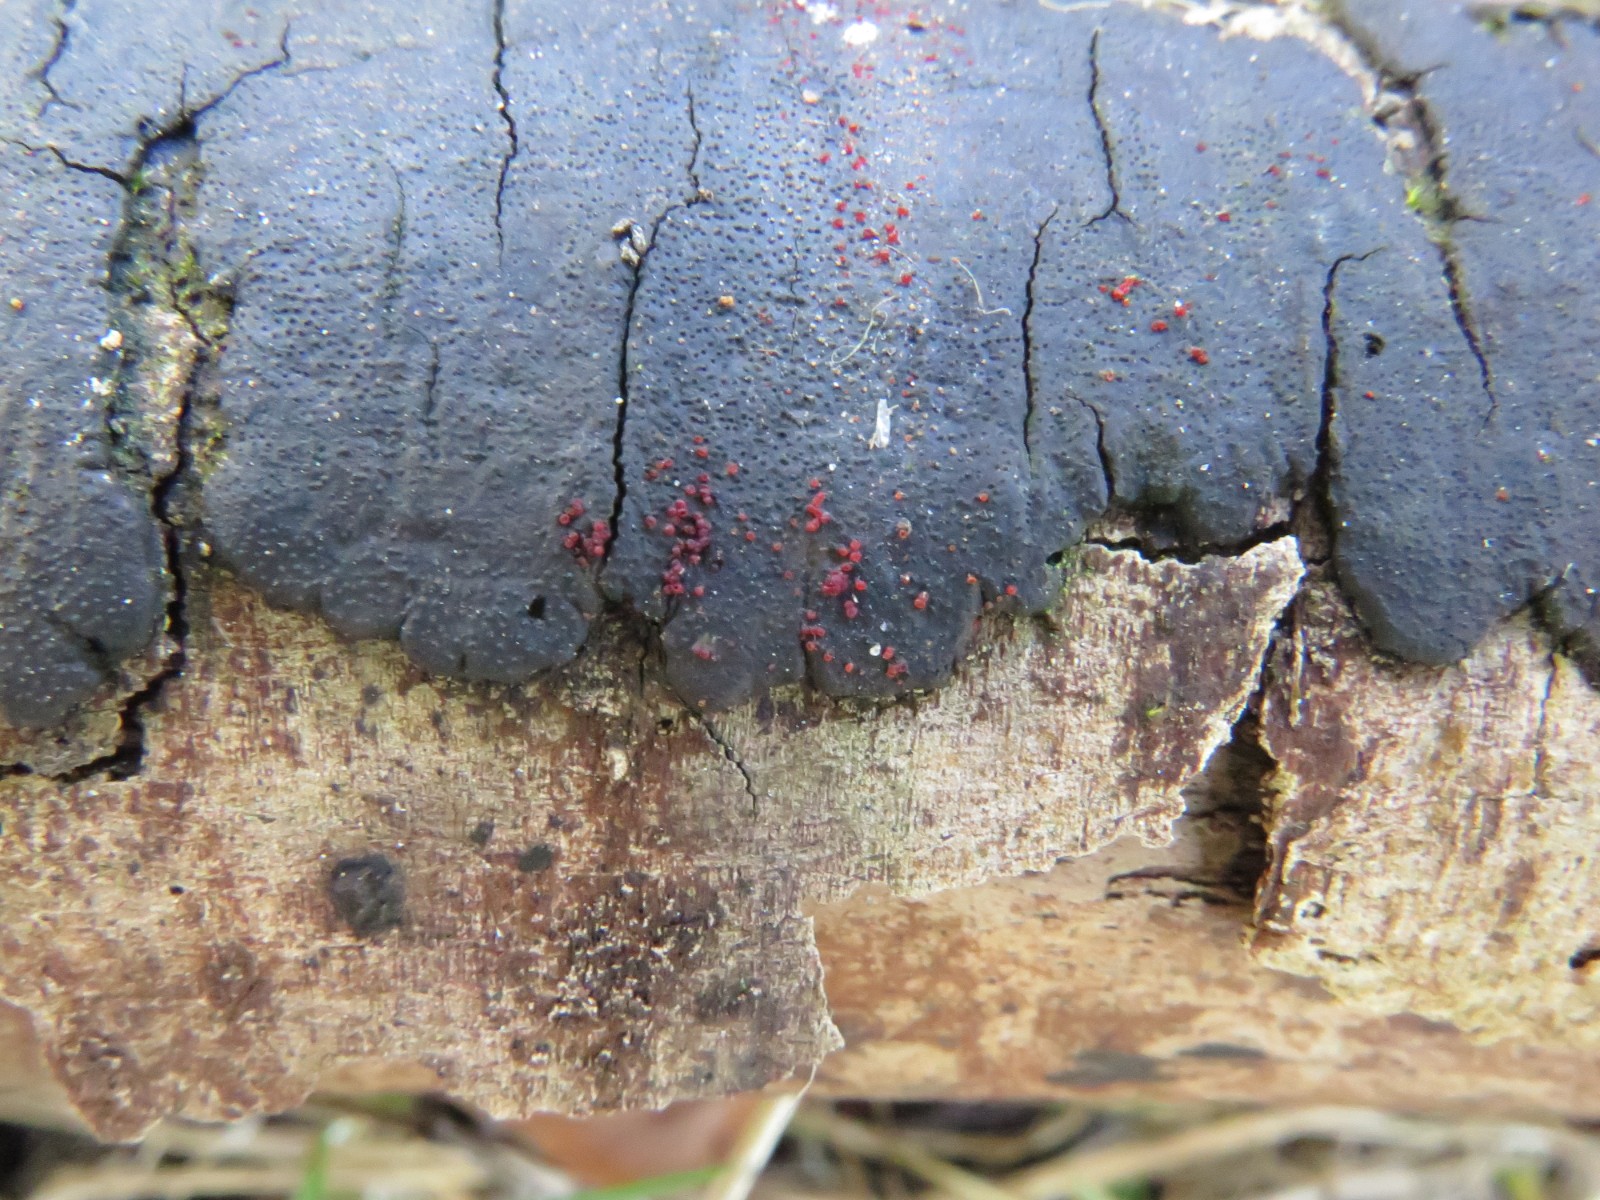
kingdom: Fungi
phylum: Ascomycota
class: Sordariomycetes
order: Hypocreales
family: Nectriaceae
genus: Dialonectria
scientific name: Dialonectria episphaeria
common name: kulskorpe-cinnobersvamp
